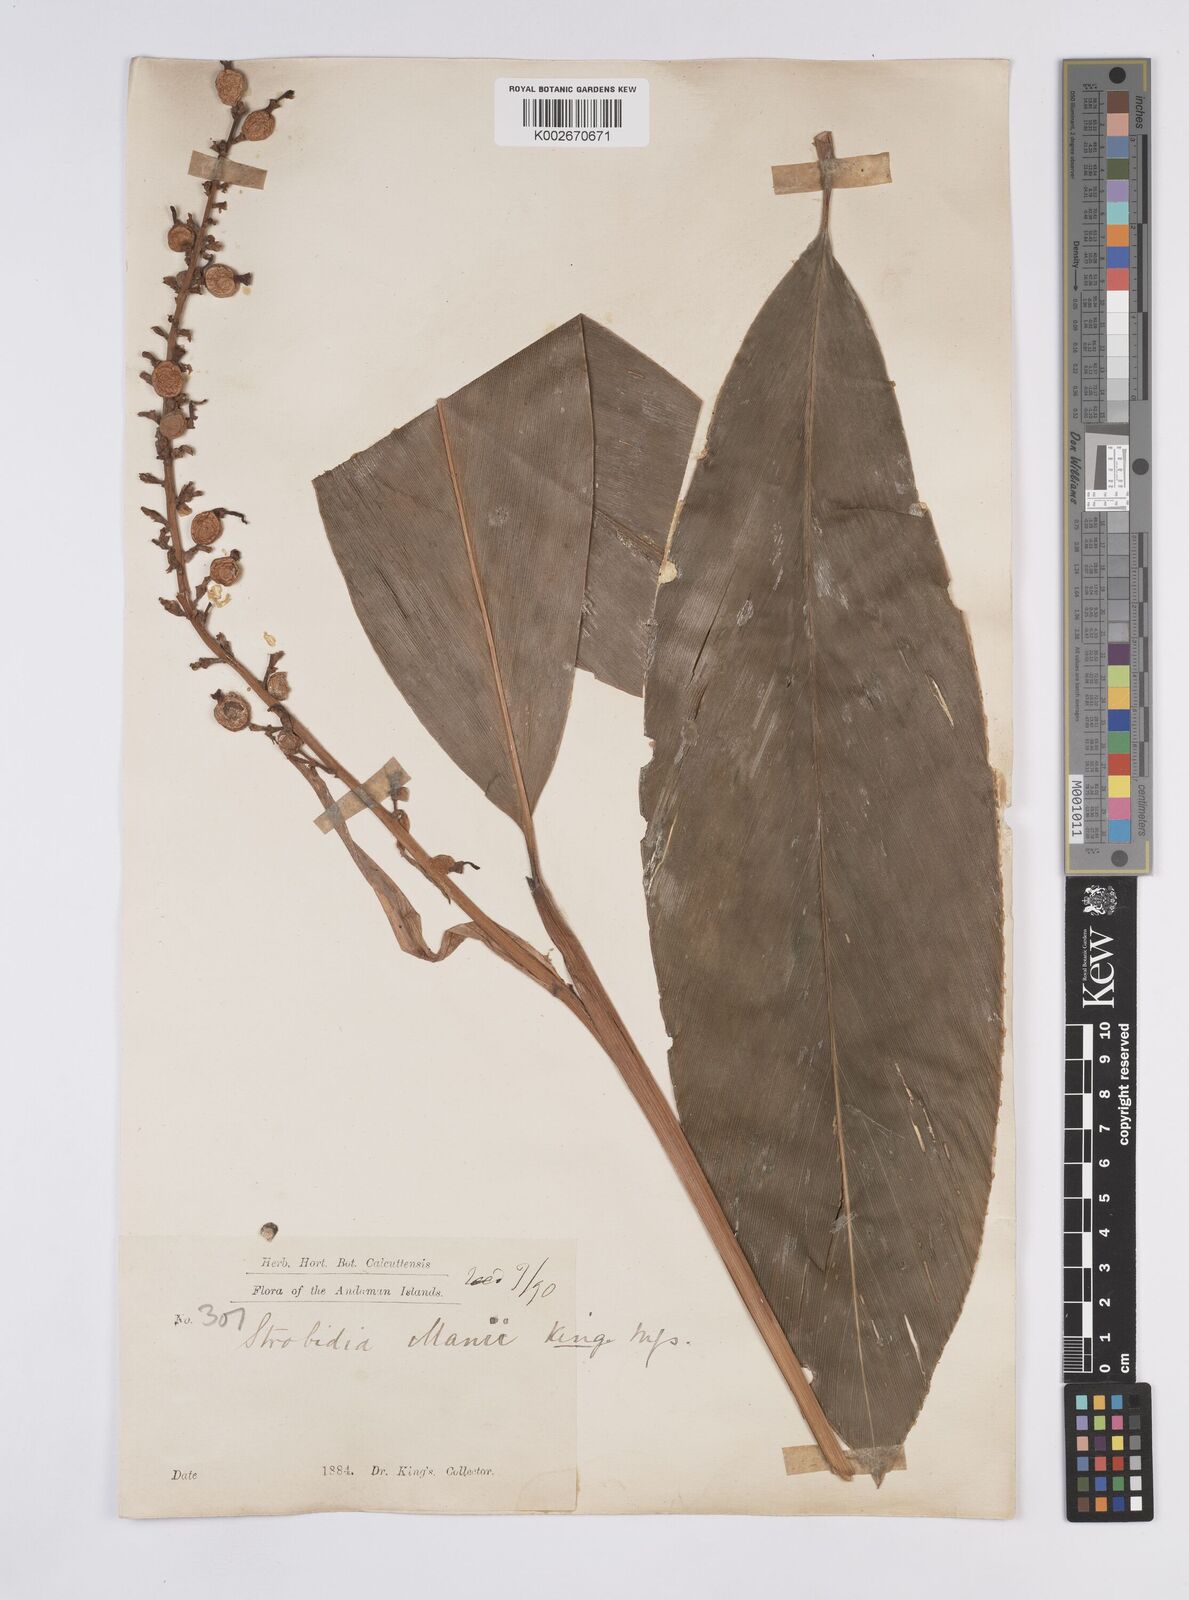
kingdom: Plantae
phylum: Tracheophyta
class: Liliopsida
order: Zingiberales
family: Zingiberaceae
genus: Alpinia
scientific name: Alpinia manii
